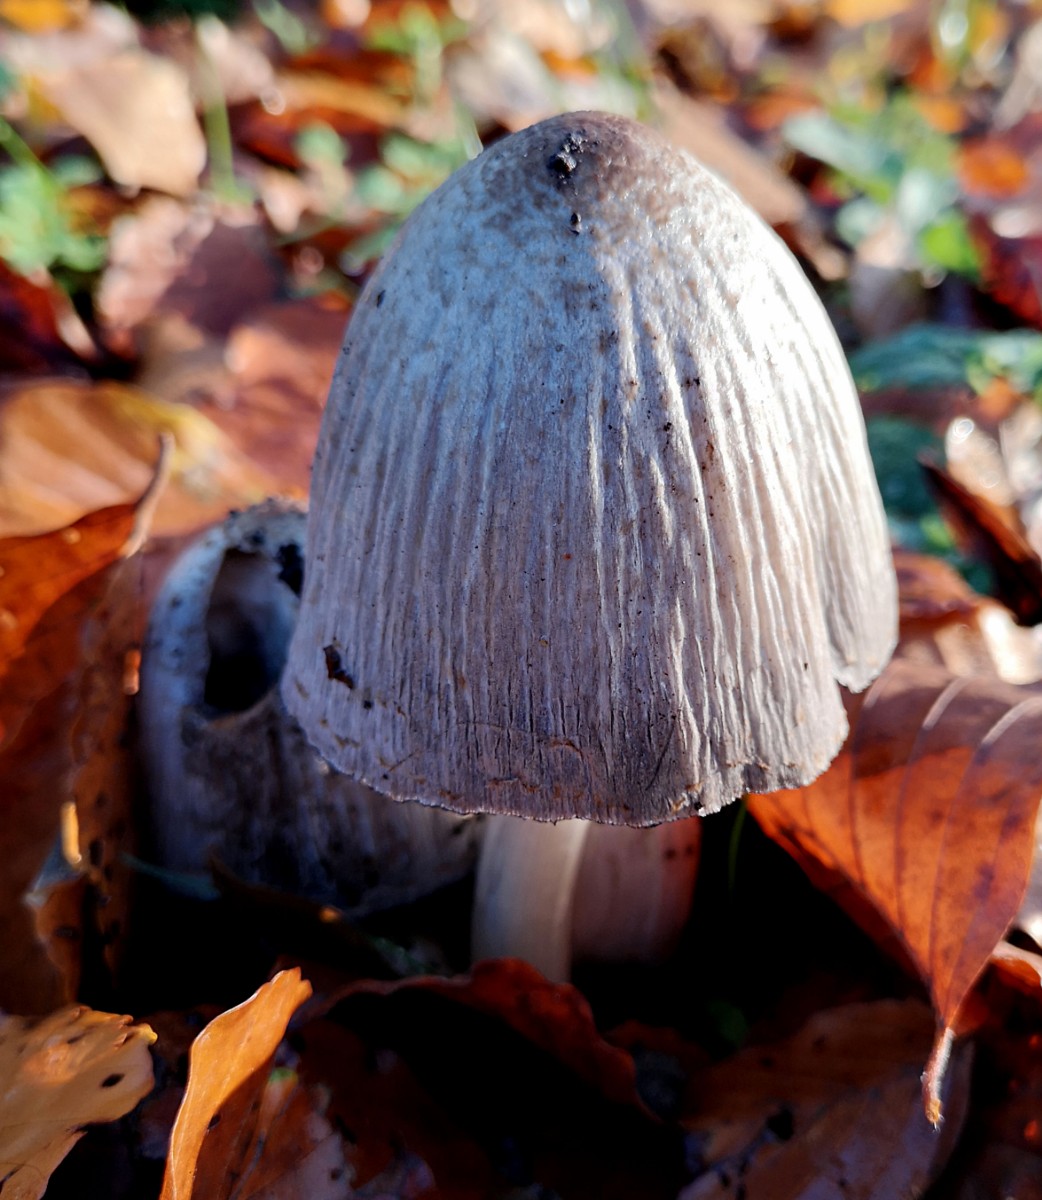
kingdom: Fungi
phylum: Basidiomycota
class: Agaricomycetes
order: Agaricales
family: Psathyrellaceae
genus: Coprinopsis
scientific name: Coprinopsis romagnesiana
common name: brunskællet blækhat
